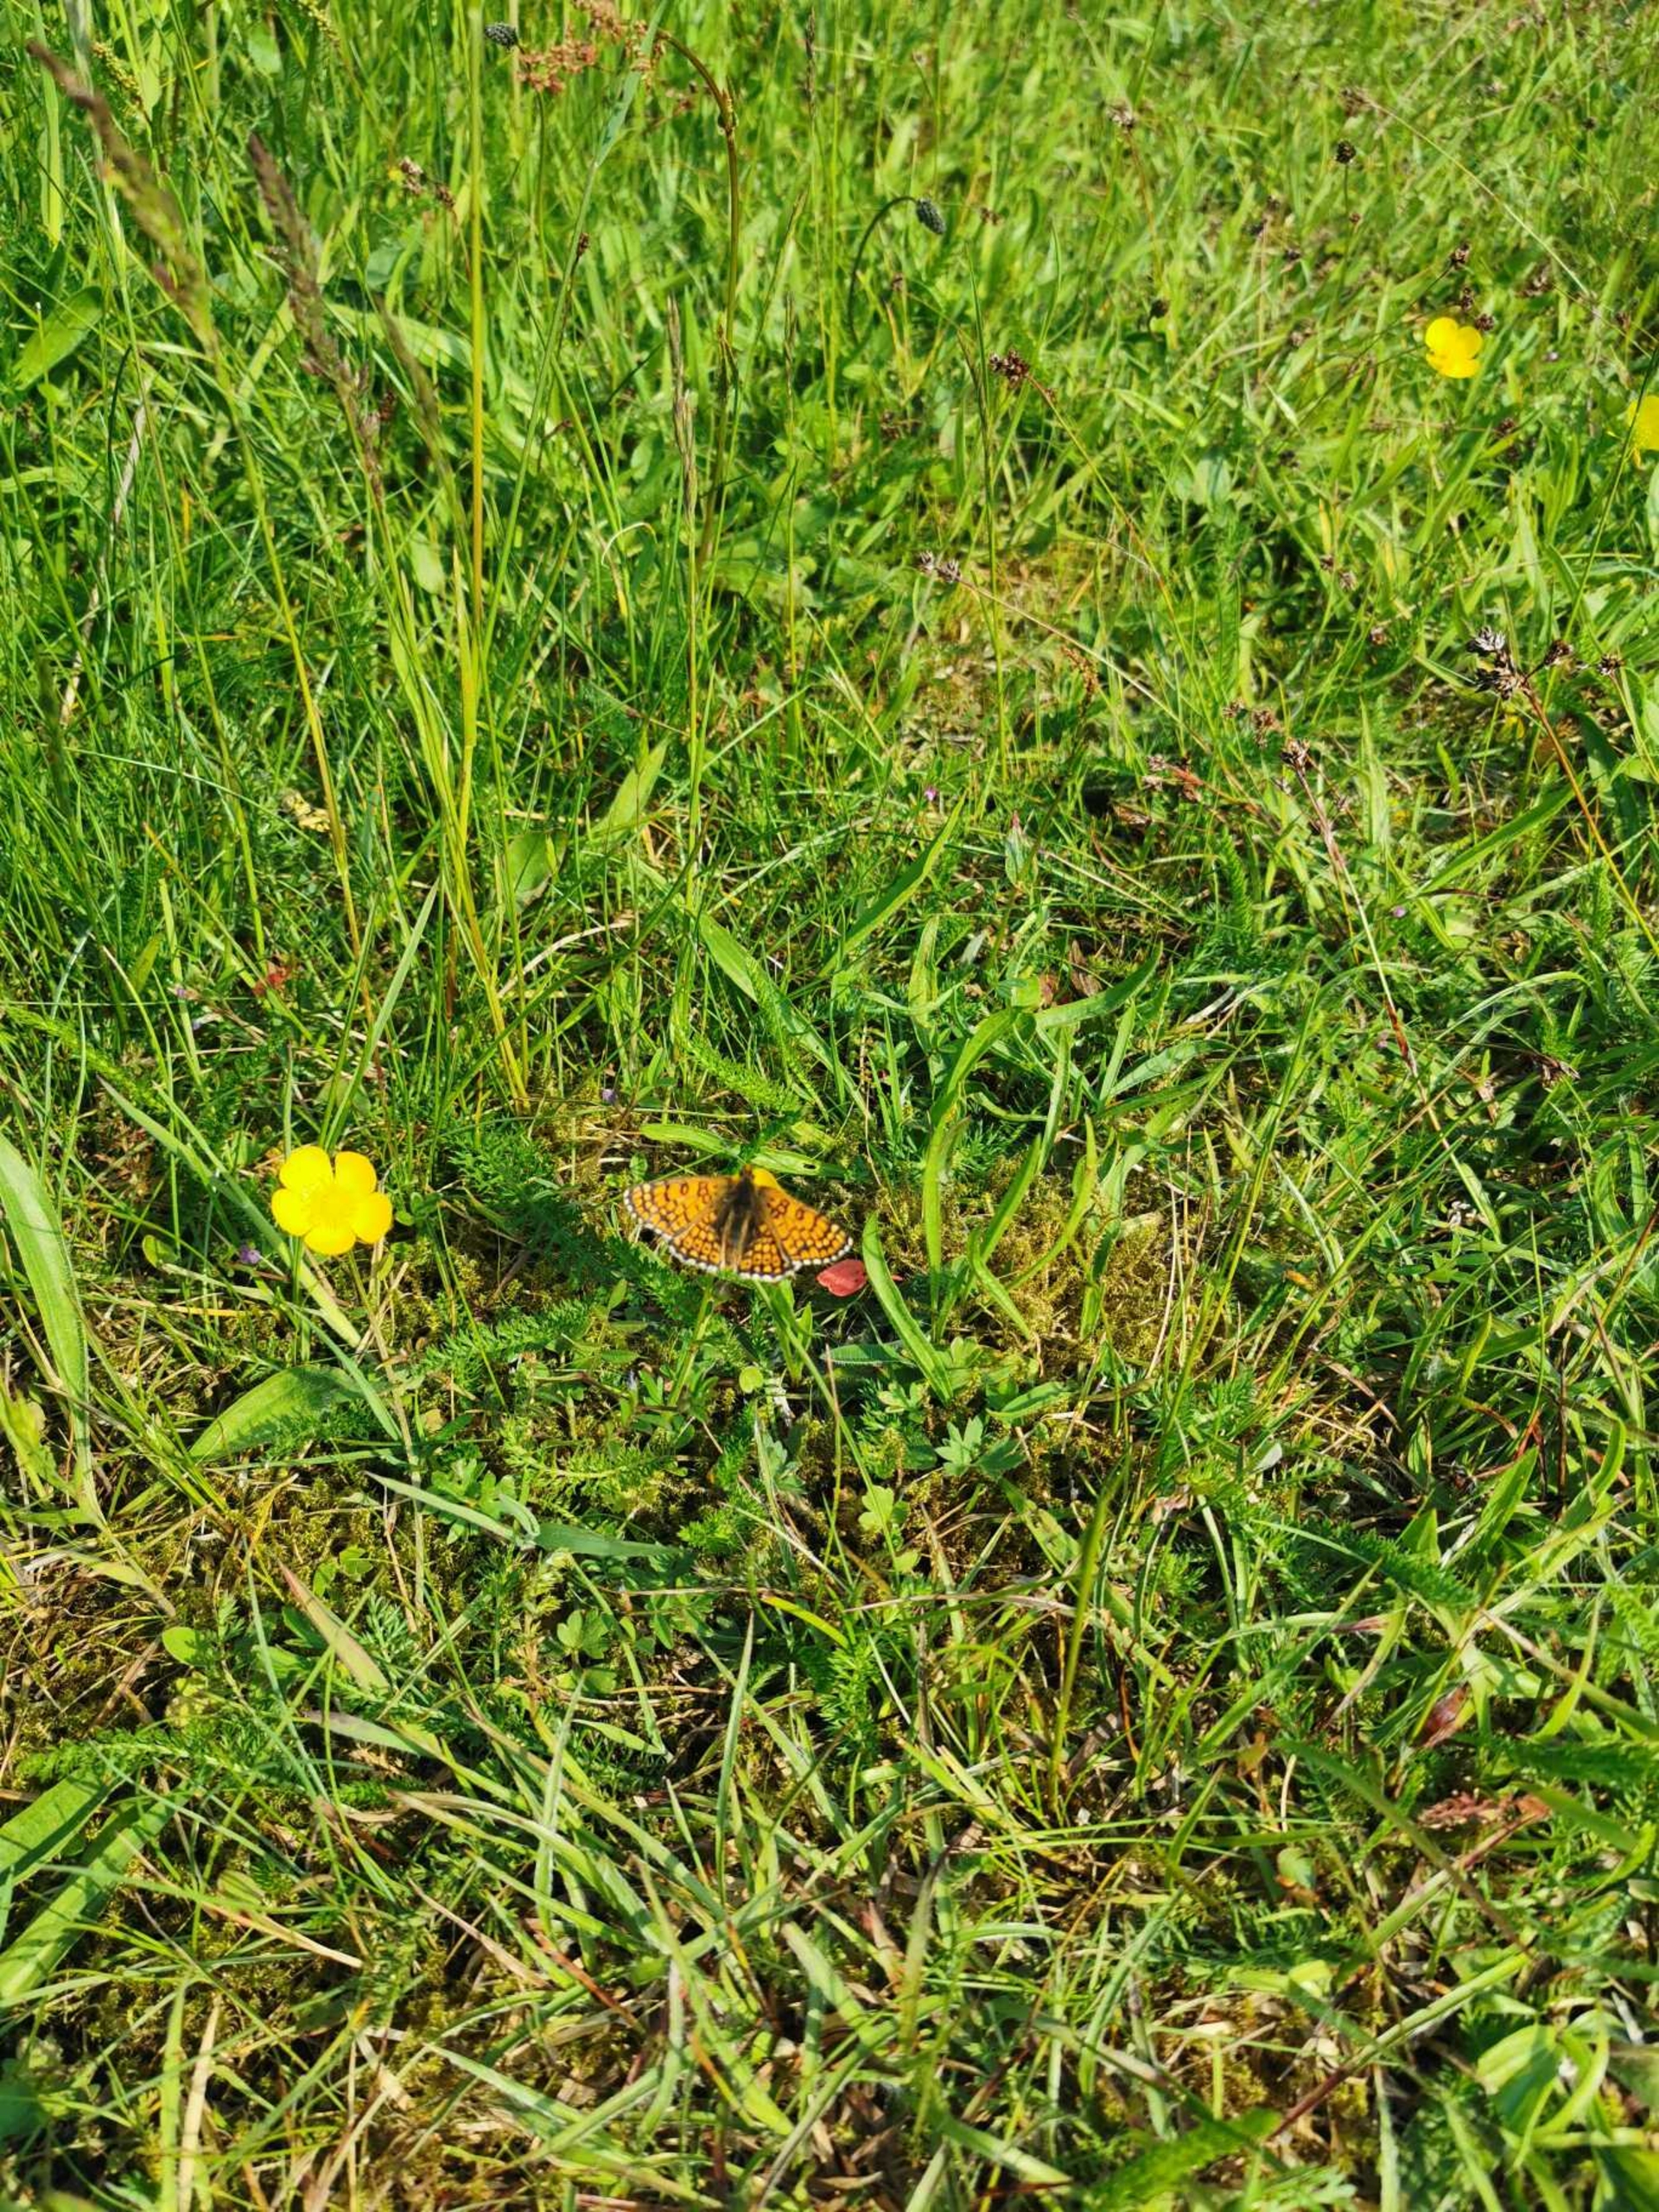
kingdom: Animalia
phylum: Arthropoda
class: Insecta
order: Lepidoptera
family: Nymphalidae
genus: Melitaea
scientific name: Melitaea cinxia
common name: Okkergul pletvinge
